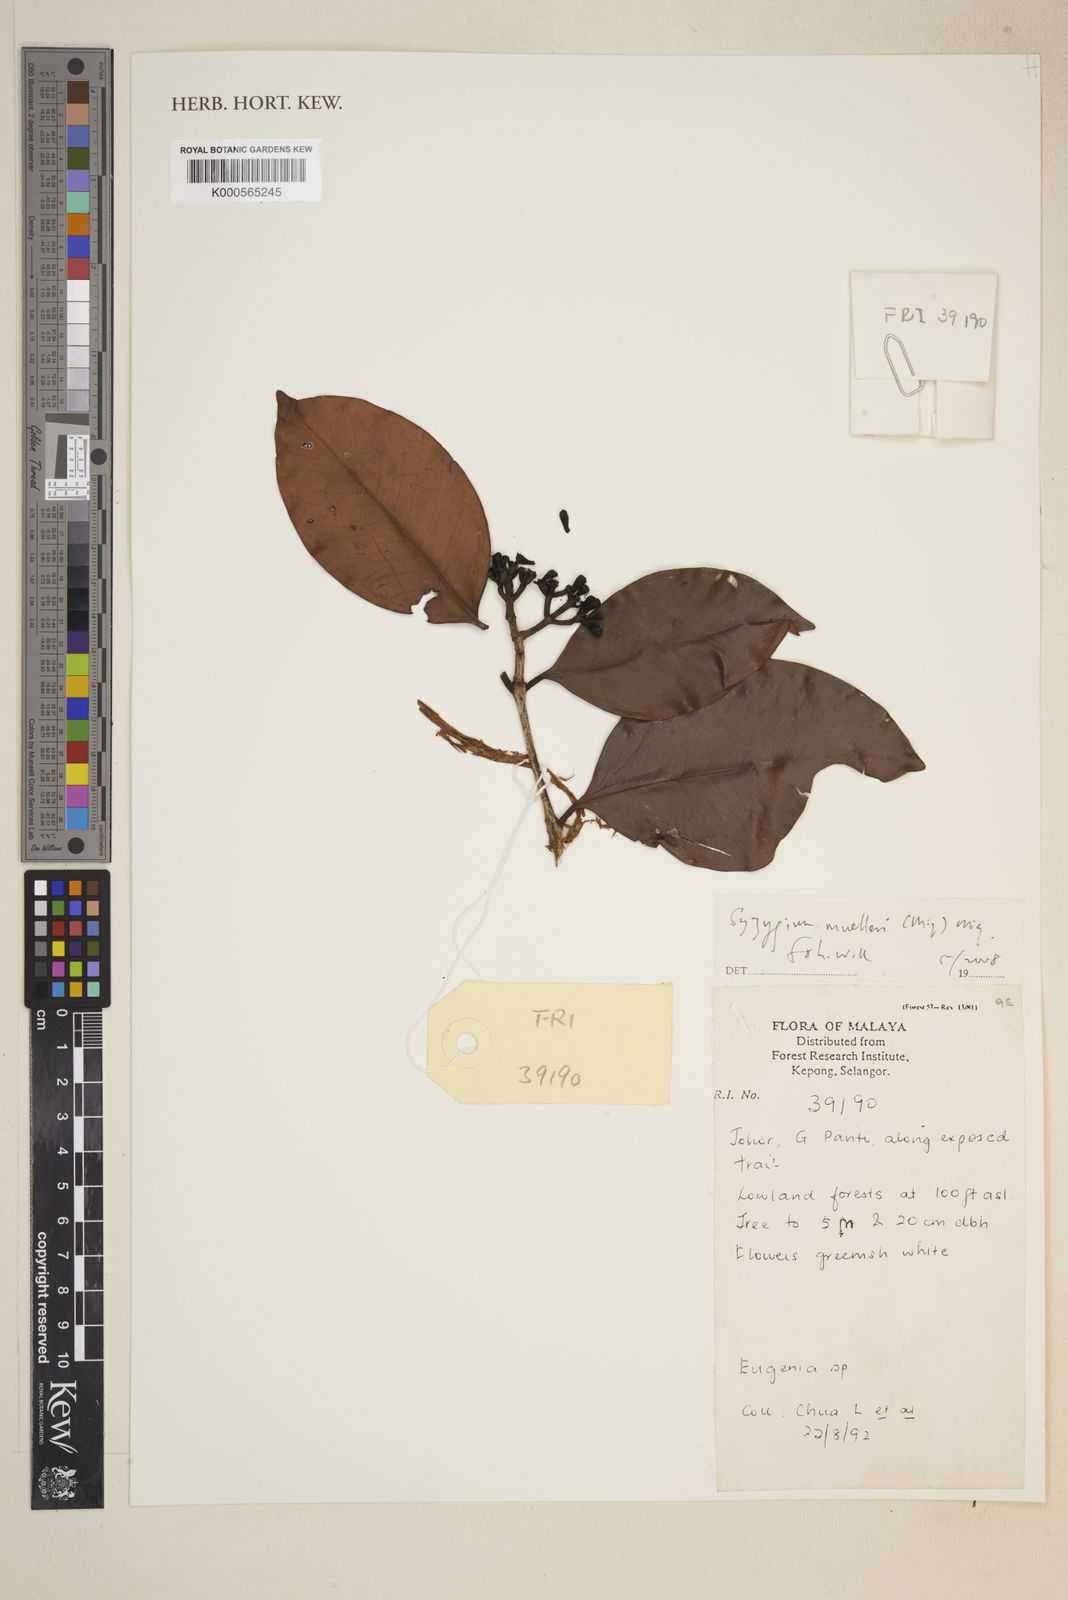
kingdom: Plantae
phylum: Tracheophyta
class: Magnoliopsida
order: Myrtales
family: Myrtaceae
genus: Syzygium
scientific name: Syzygium muelleri
